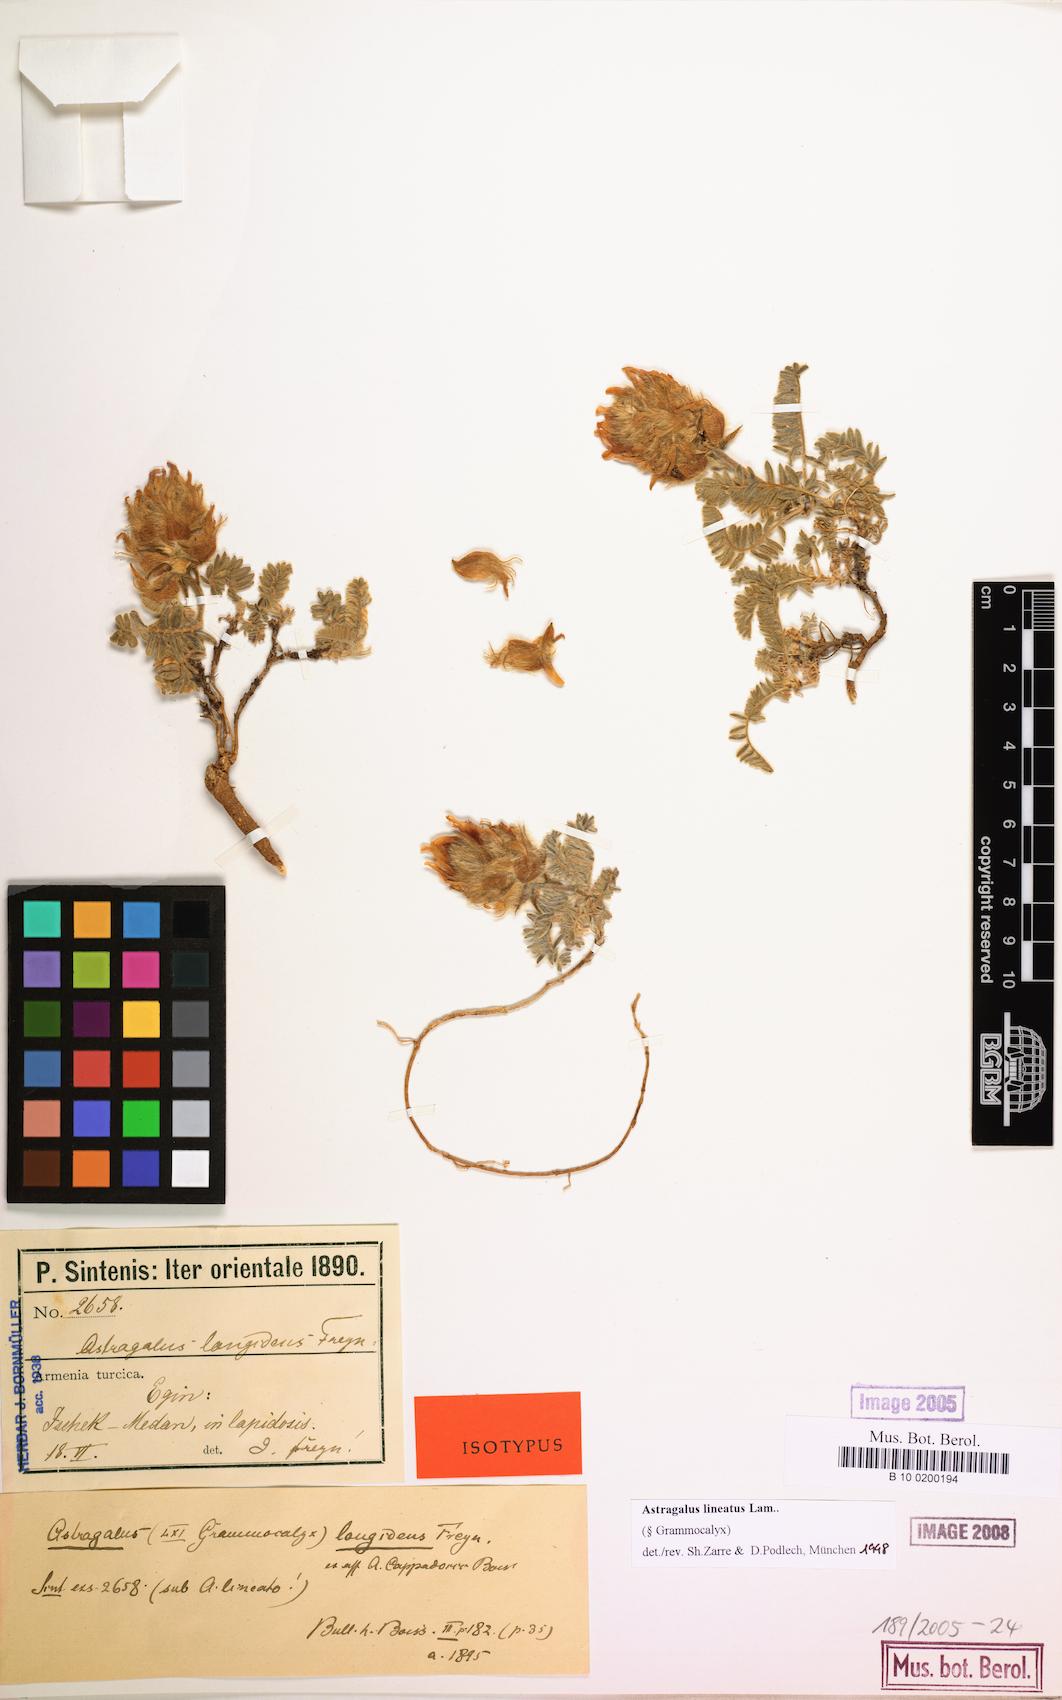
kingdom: Plantae
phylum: Tracheophyta
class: Magnoliopsida
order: Fabales
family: Fabaceae
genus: Astragalus
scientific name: Astragalus lineatus
